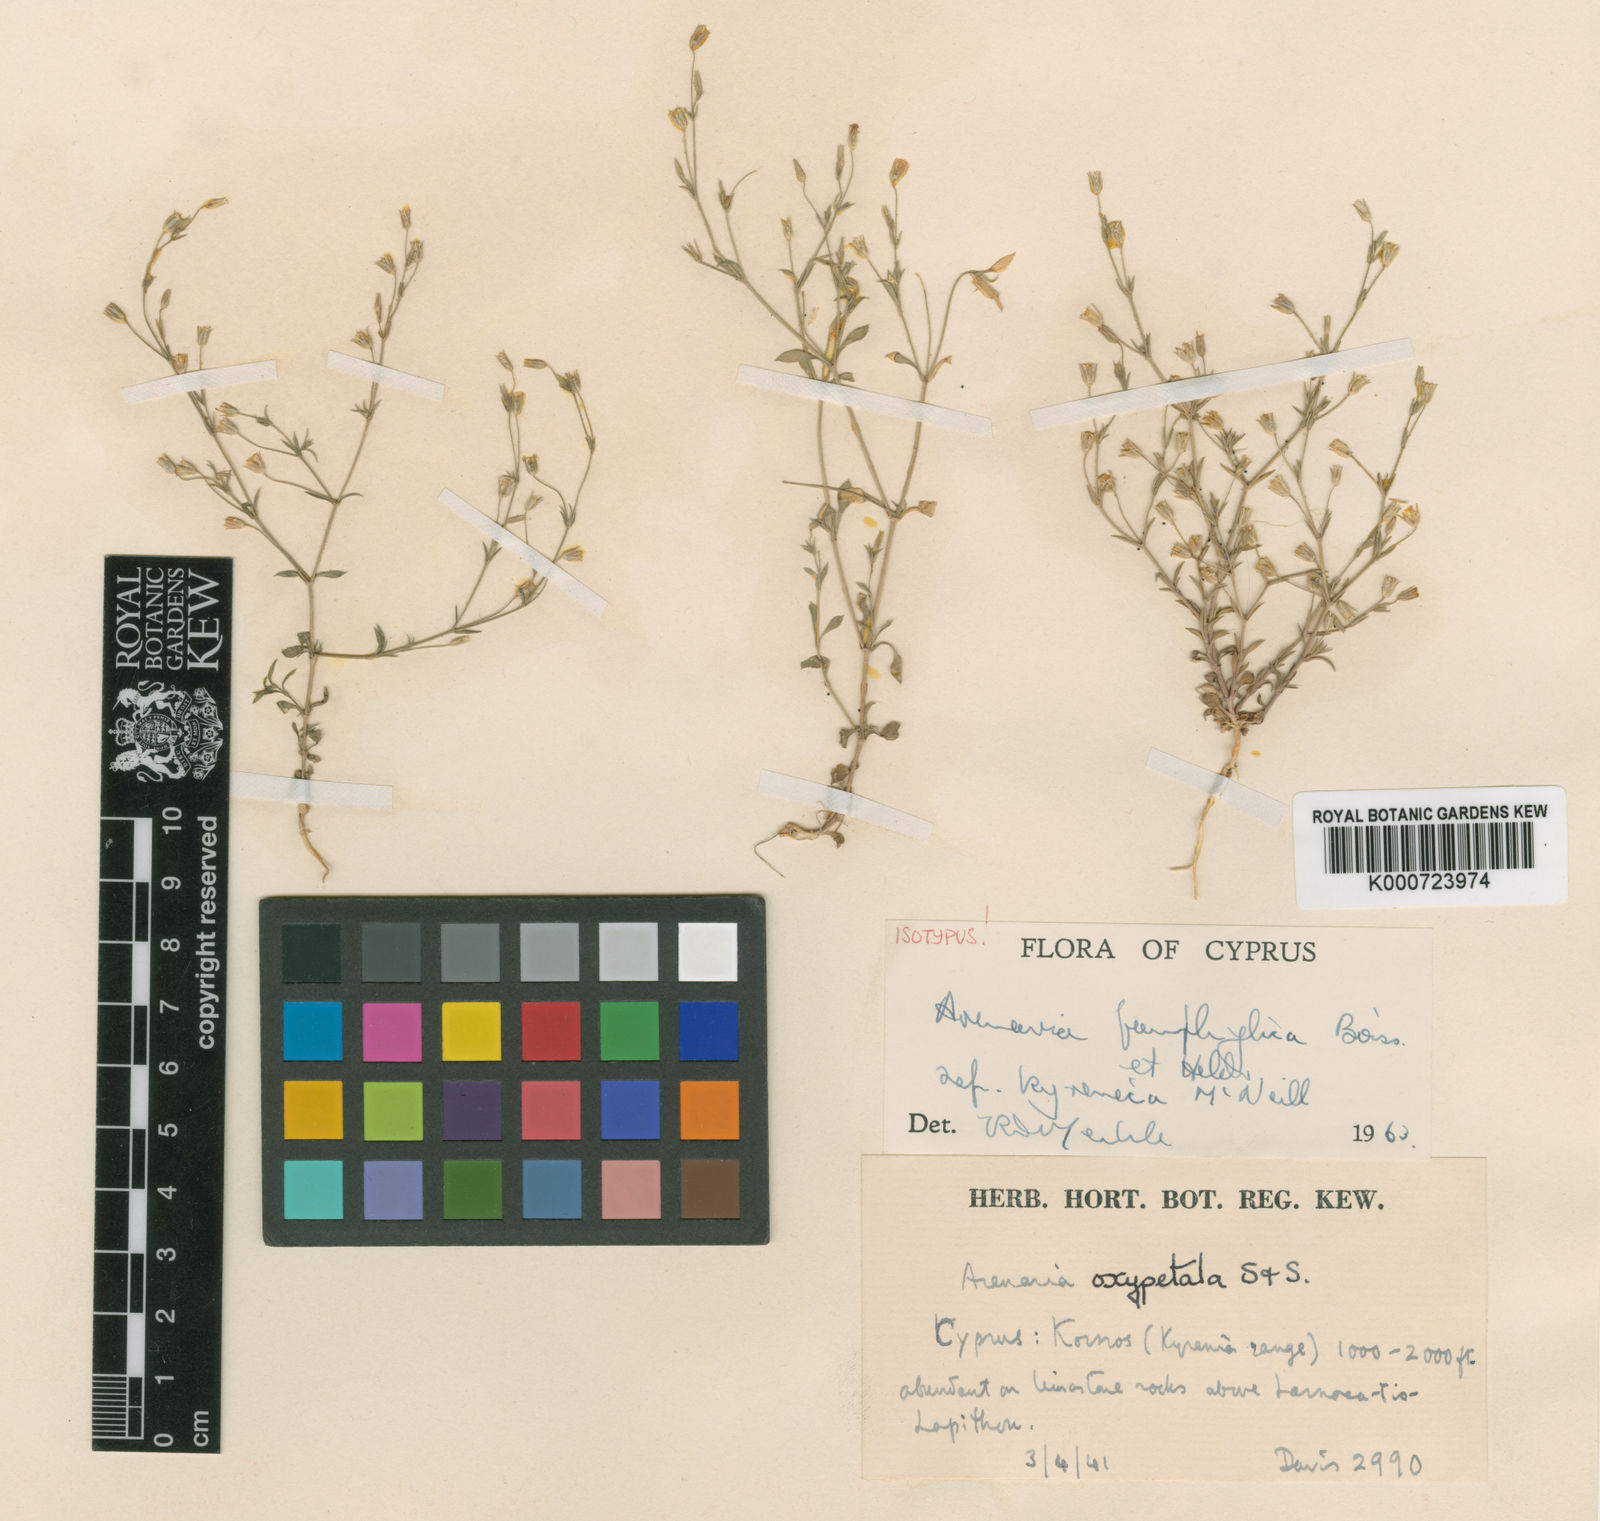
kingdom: Plantae
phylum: Tracheophyta
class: Magnoliopsida
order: Caryophyllales
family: Caryophyllaceae
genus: Arenaria
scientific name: Arenaria pamphylica
